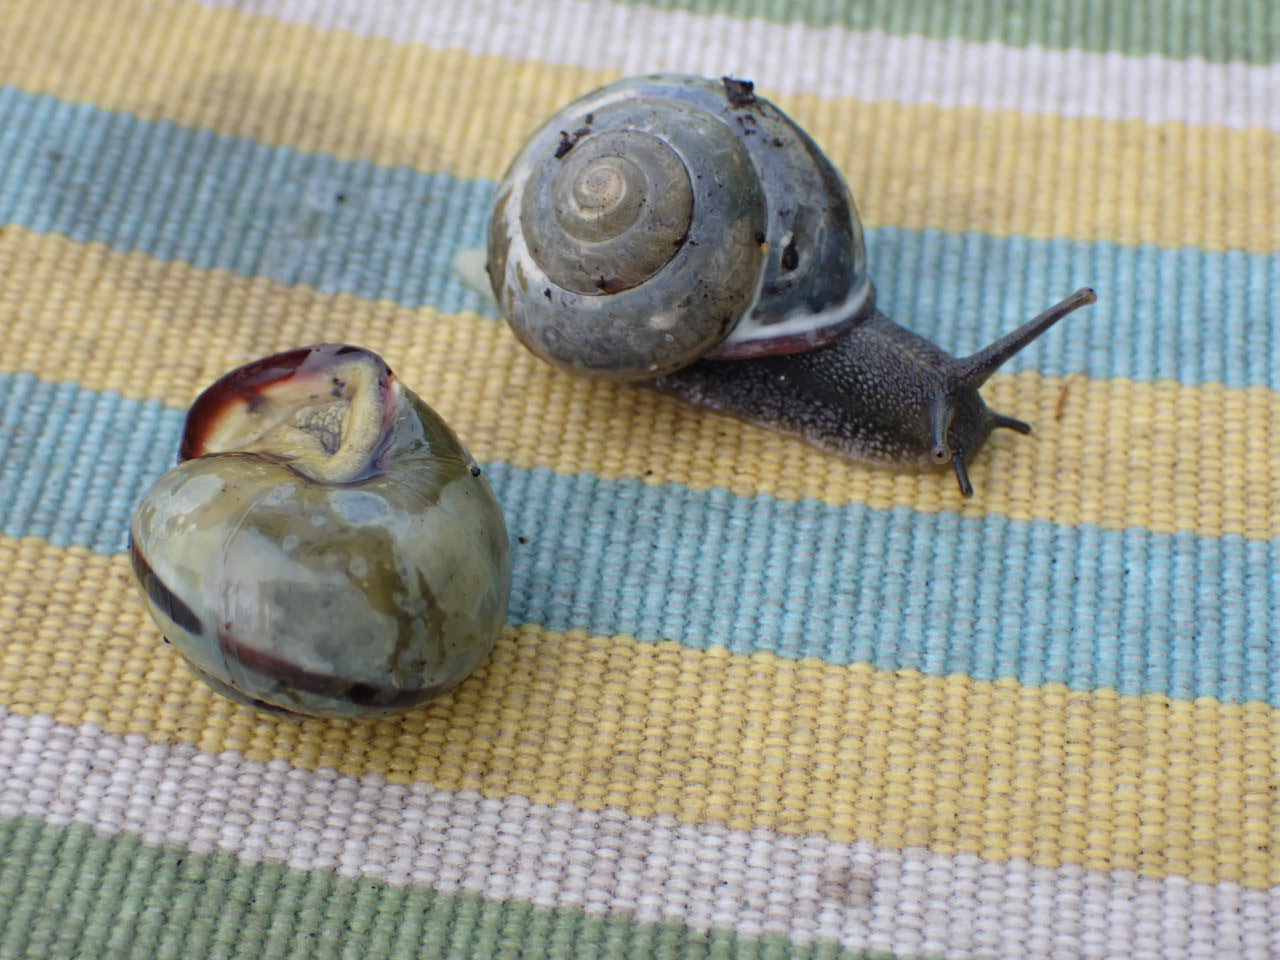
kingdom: Animalia
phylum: Mollusca
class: Gastropoda
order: Stylommatophora
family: Helicidae
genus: Cepaea
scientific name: Cepaea nemoralis
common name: Lundsnegl
